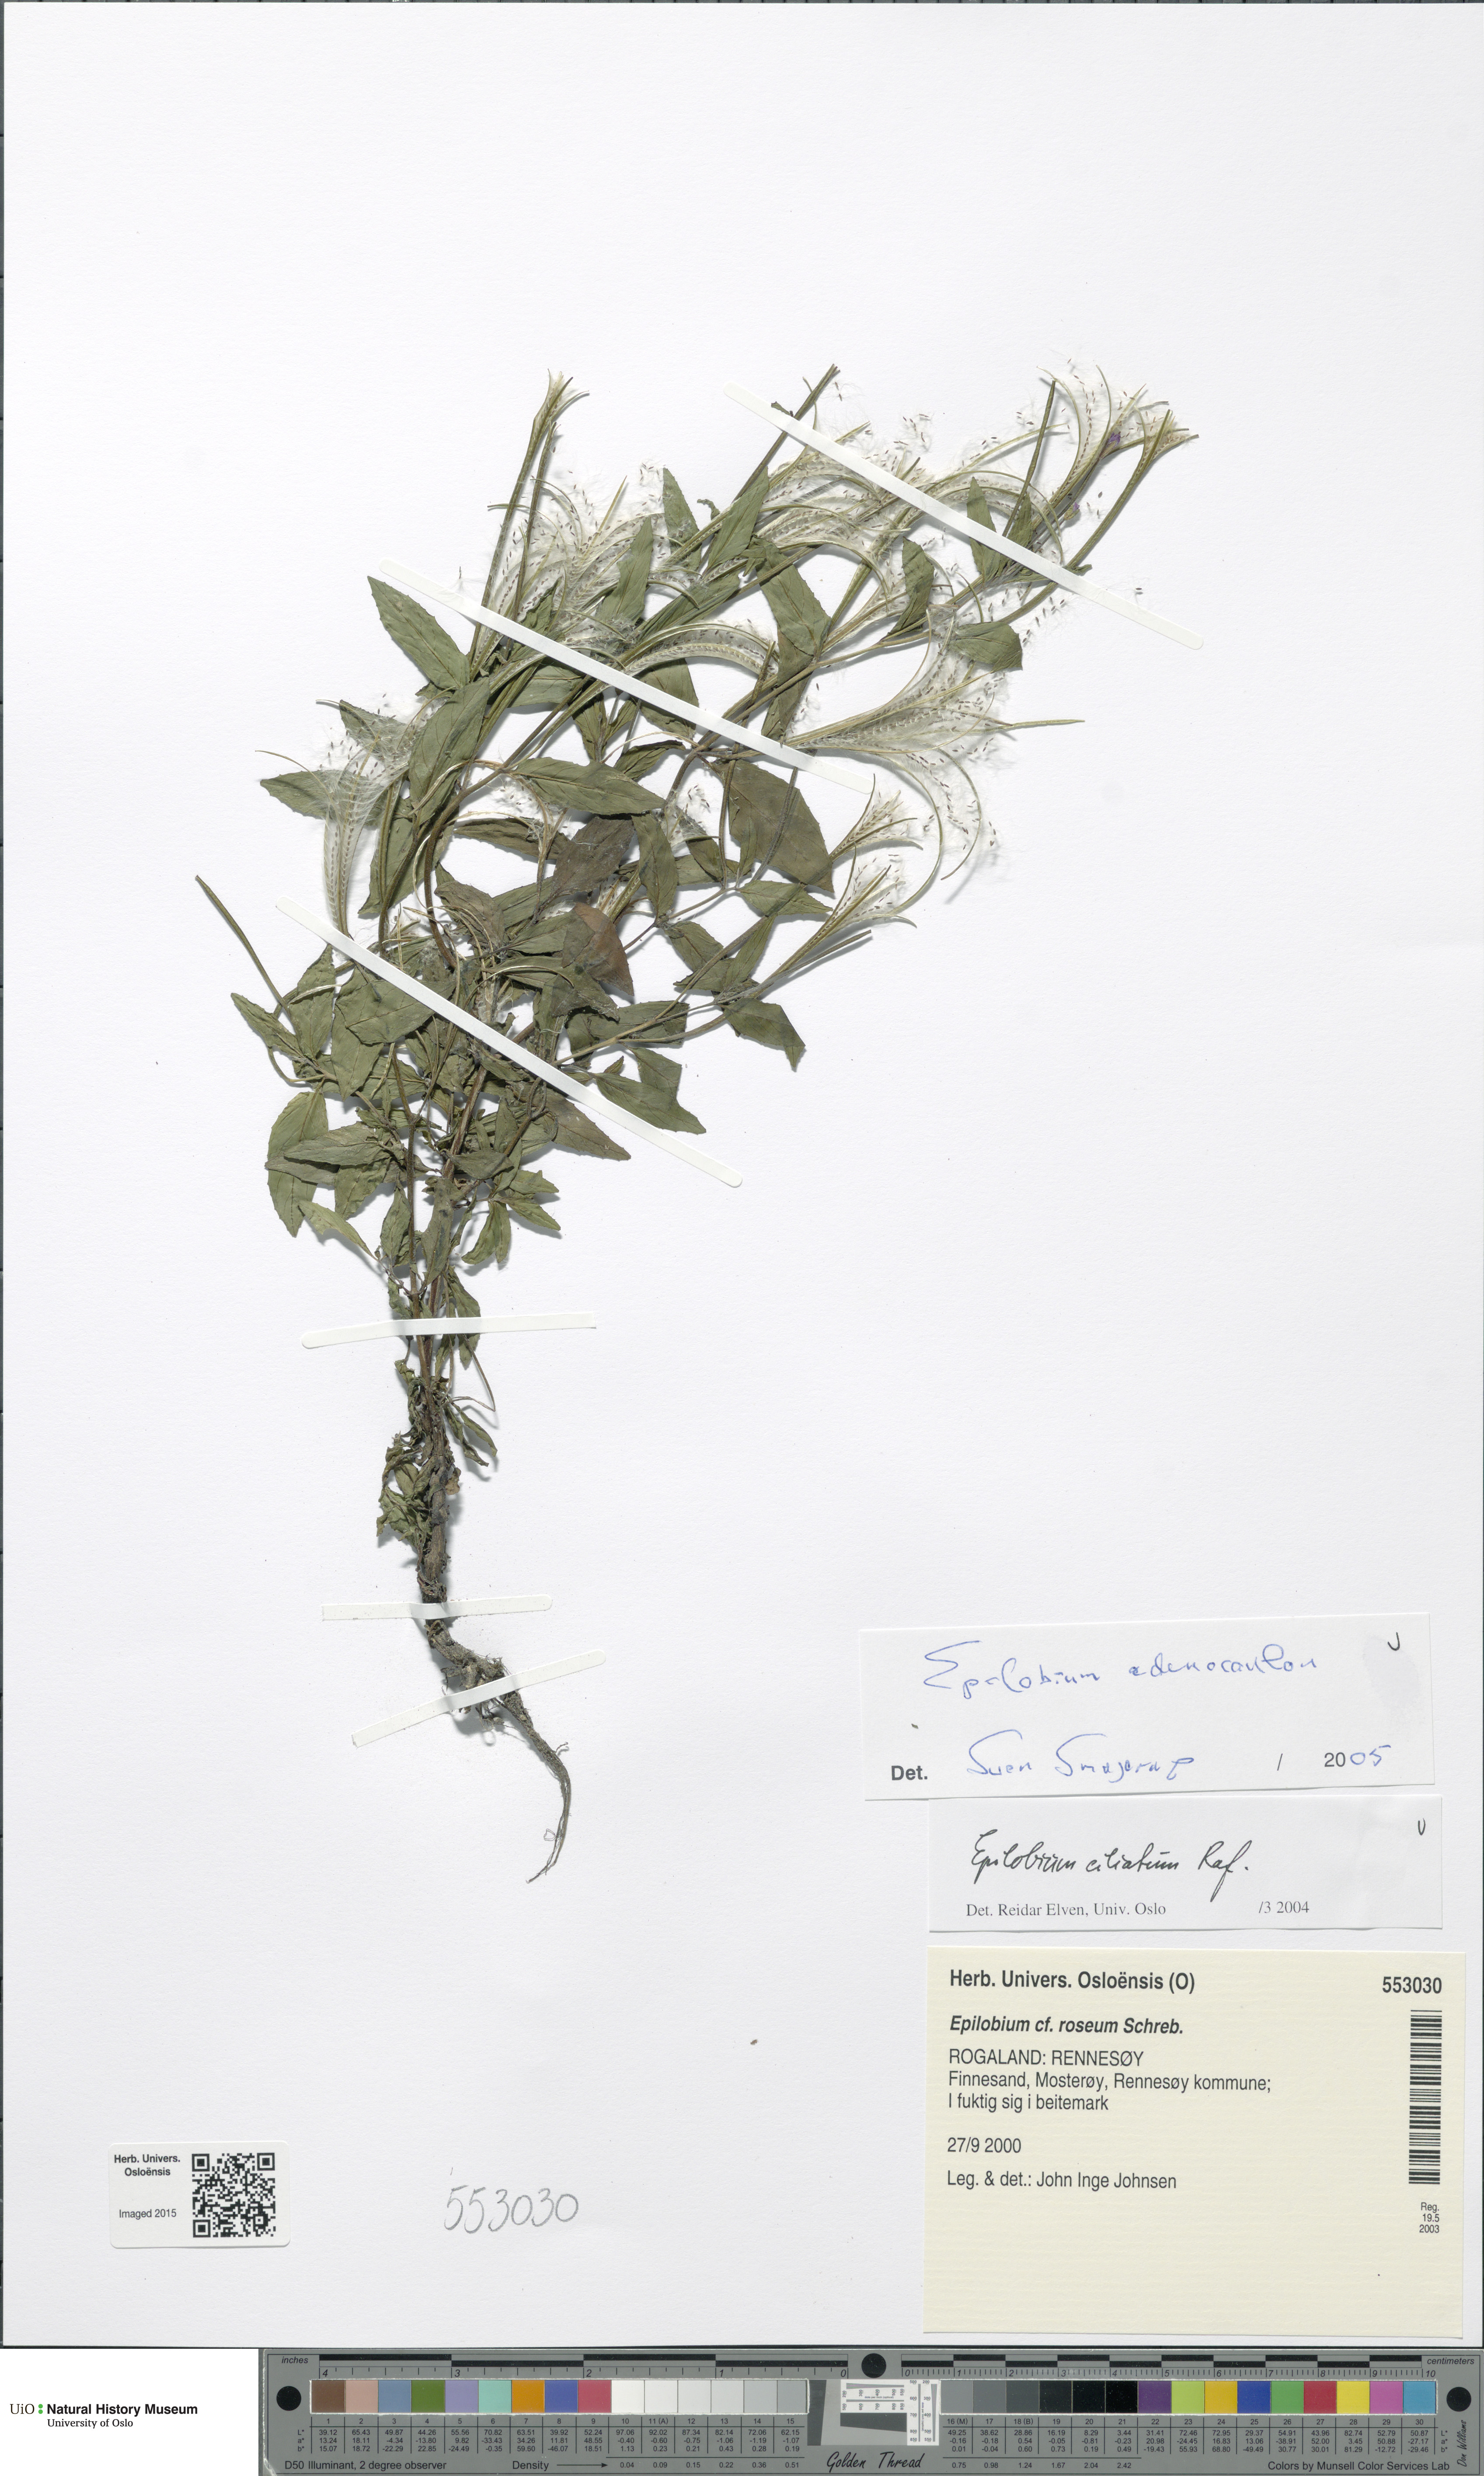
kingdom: Plantae
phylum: Tracheophyta
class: Magnoliopsida
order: Myrtales
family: Onagraceae
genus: Epilobium
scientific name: Epilobium ciliatum
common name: American willowherb
